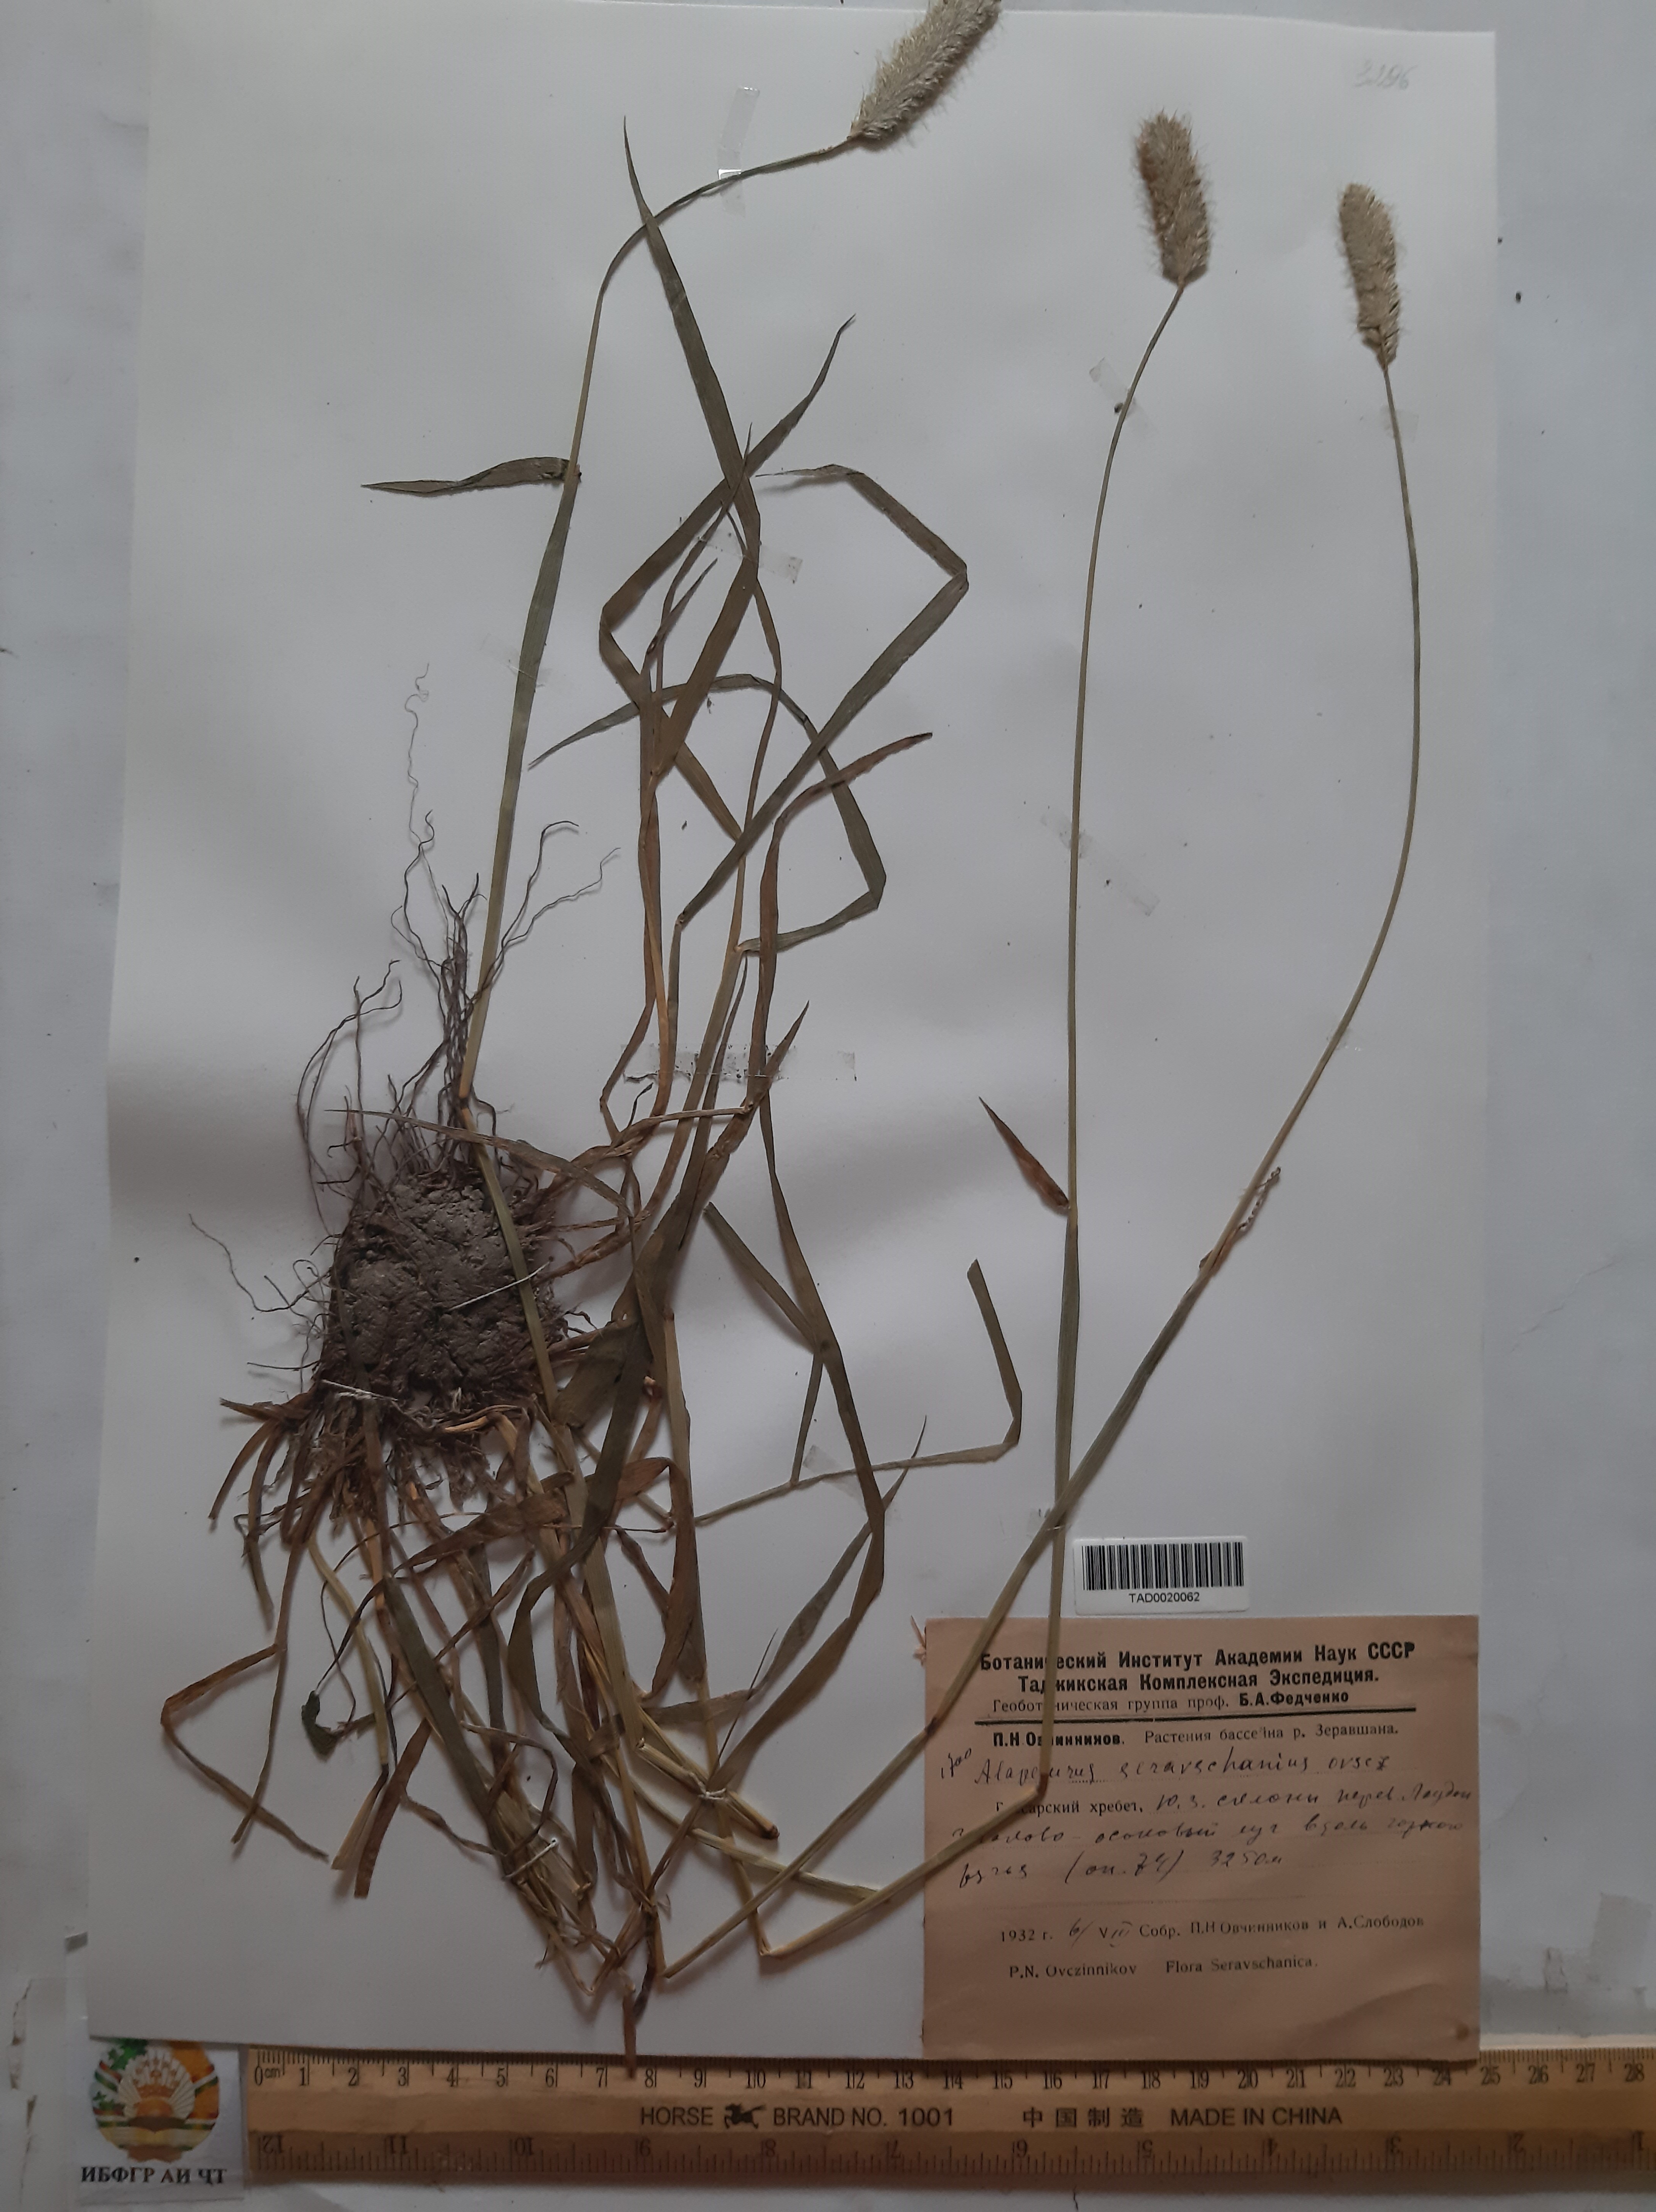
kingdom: Plantae
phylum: Tracheophyta
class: Liliopsida
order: Poales
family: Poaceae
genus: Alopecurus
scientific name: Alopecurus pratensis
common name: Meadow foxtail
